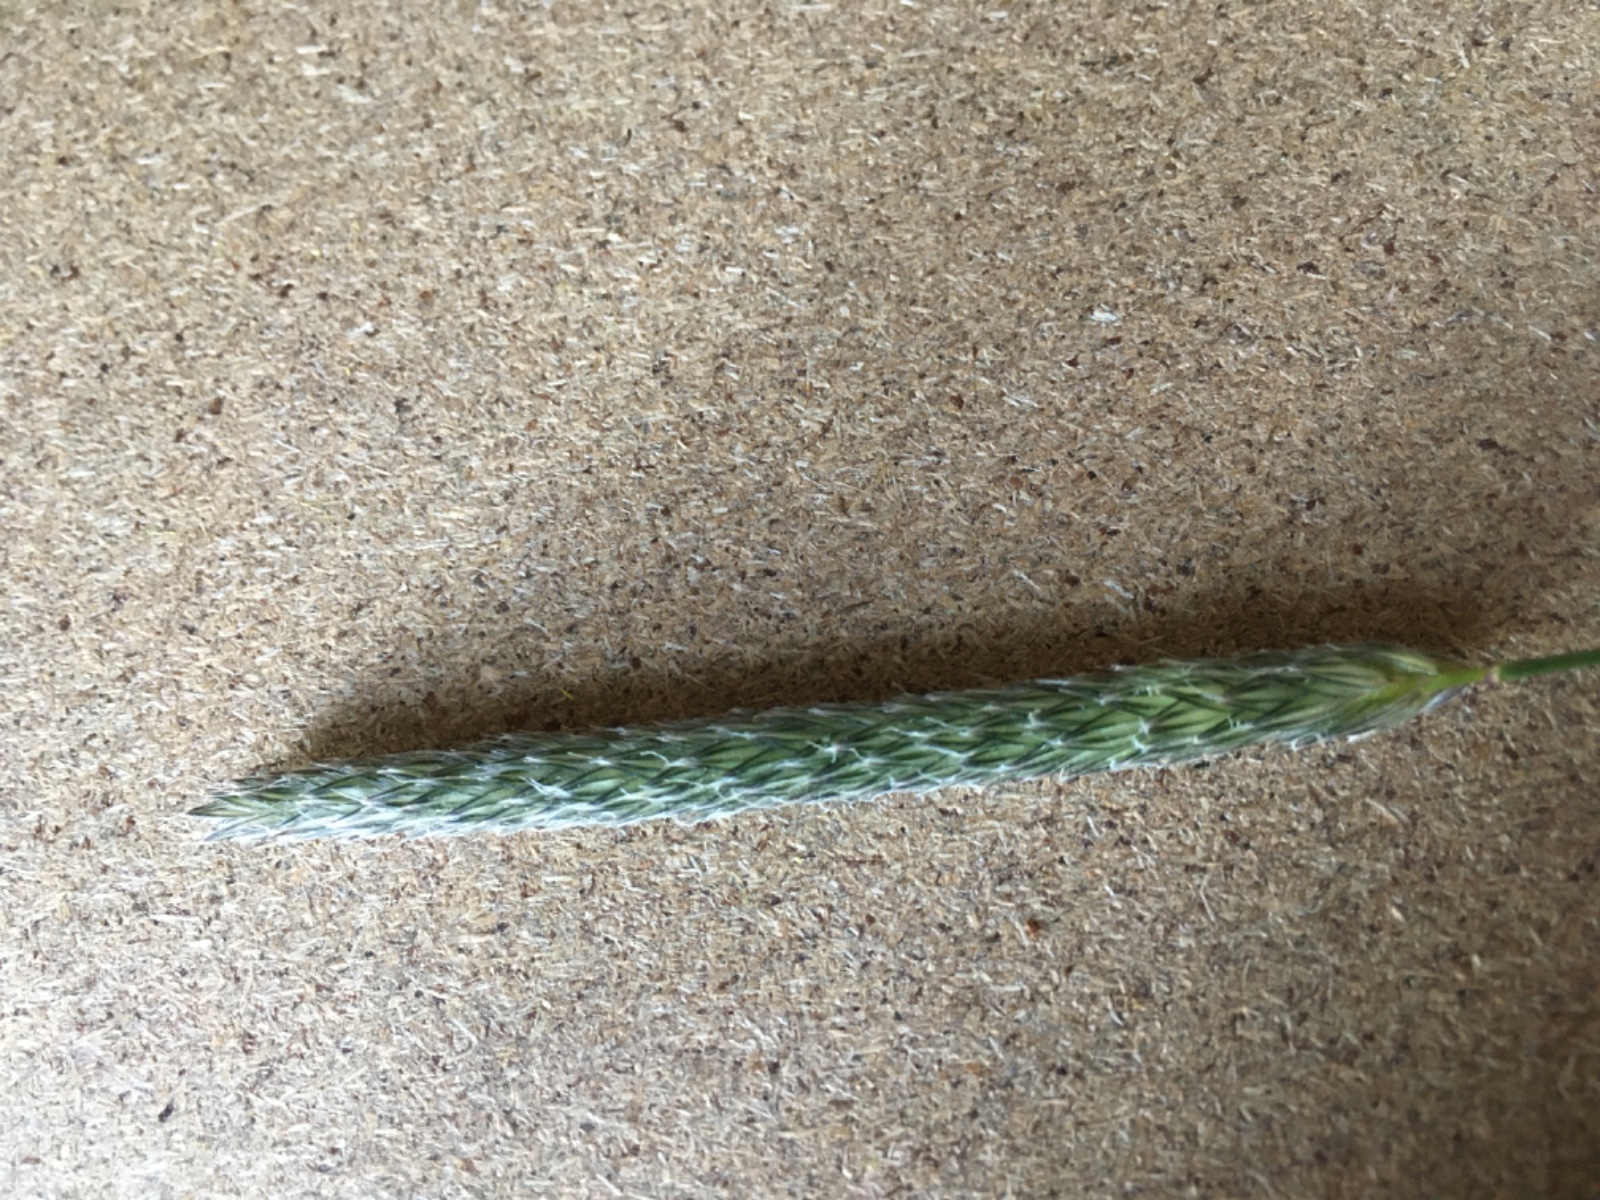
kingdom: Fungi
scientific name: Fungi
